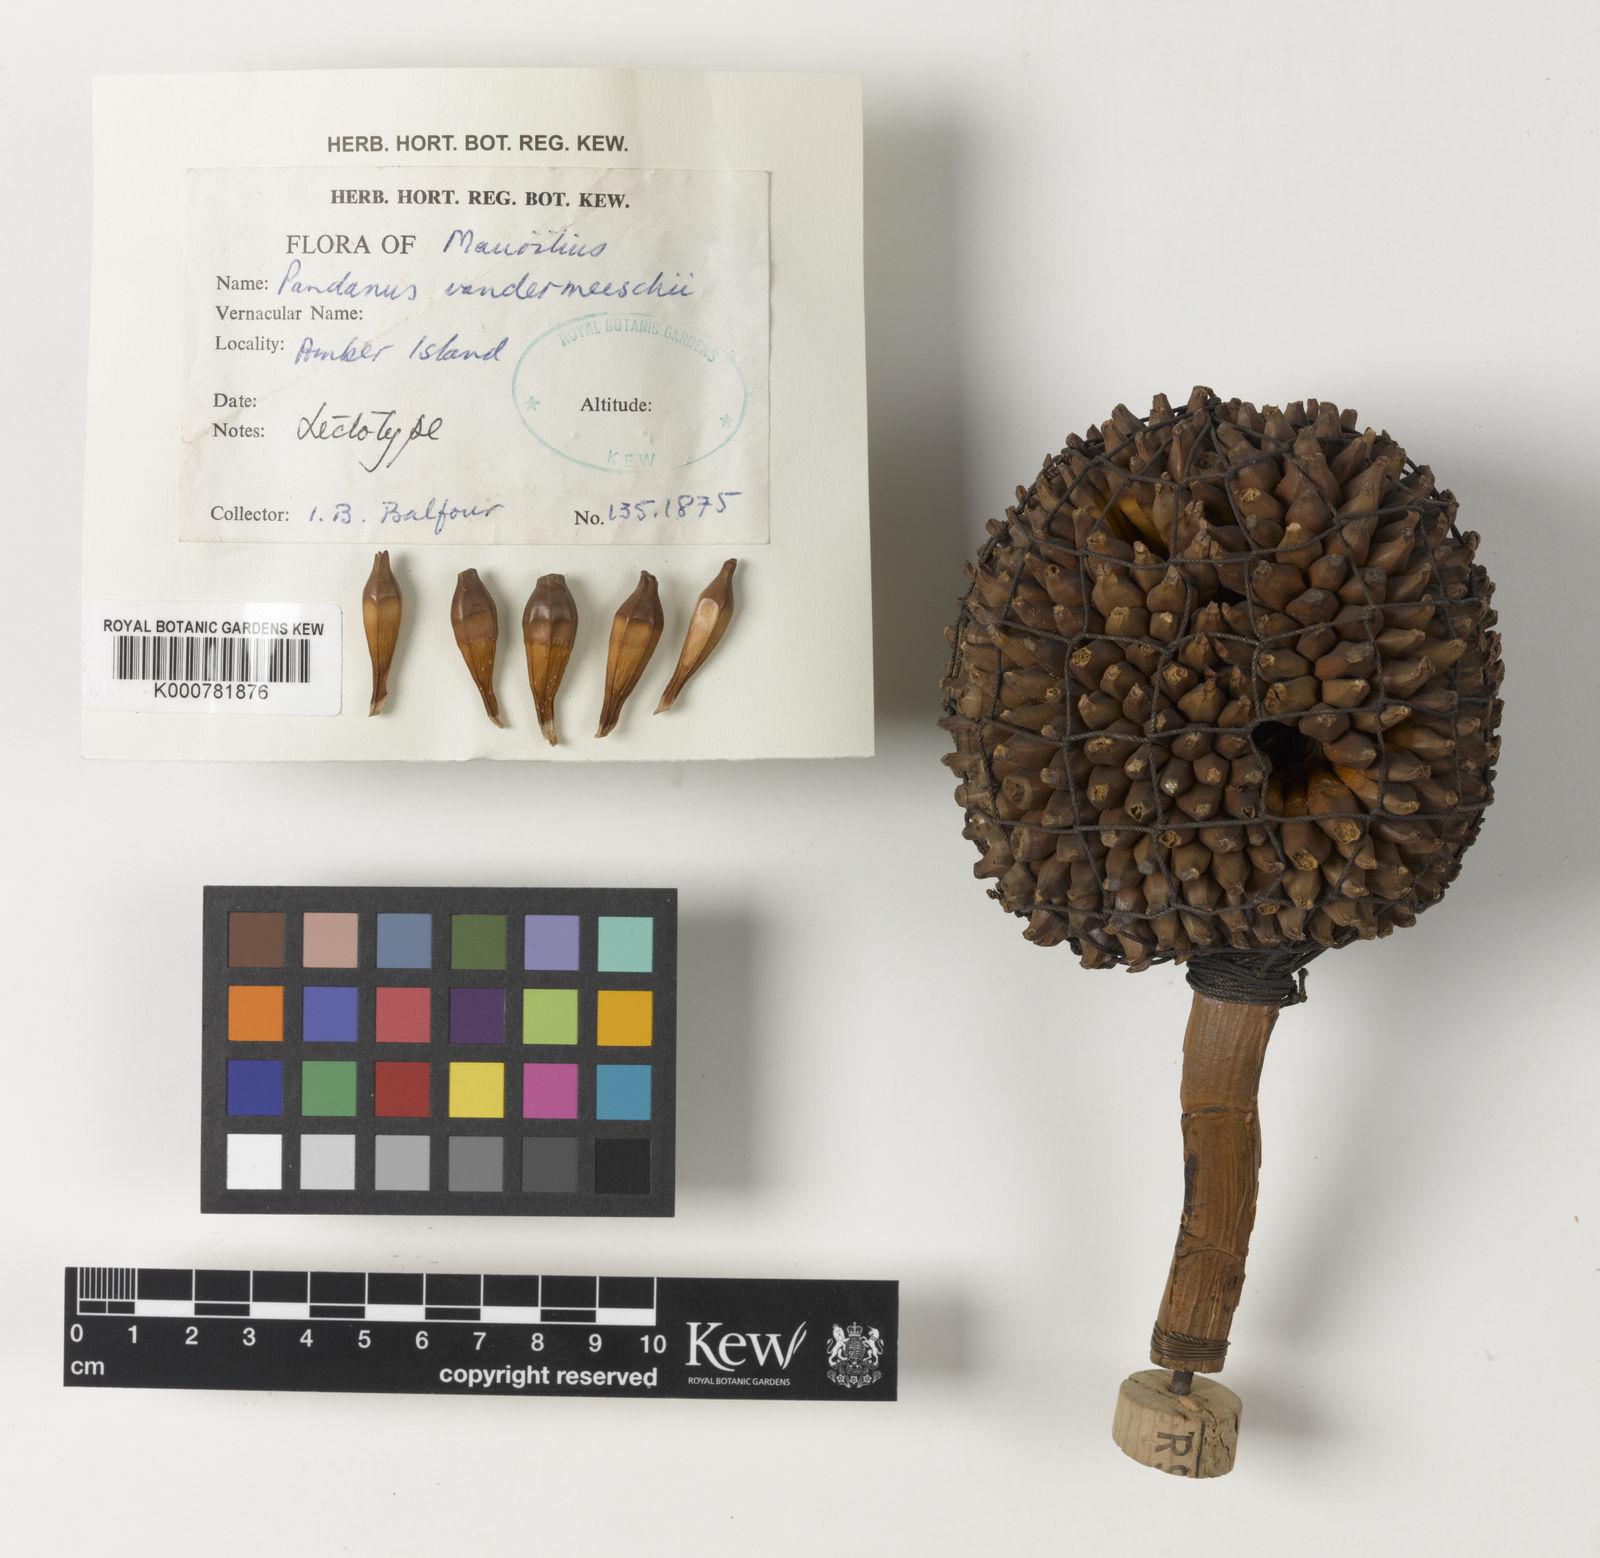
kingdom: Plantae
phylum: Tracheophyta
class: Liliopsida
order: Pandanales
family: Pandanaceae
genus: Pandanus
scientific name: Pandanus vandermeeschii
